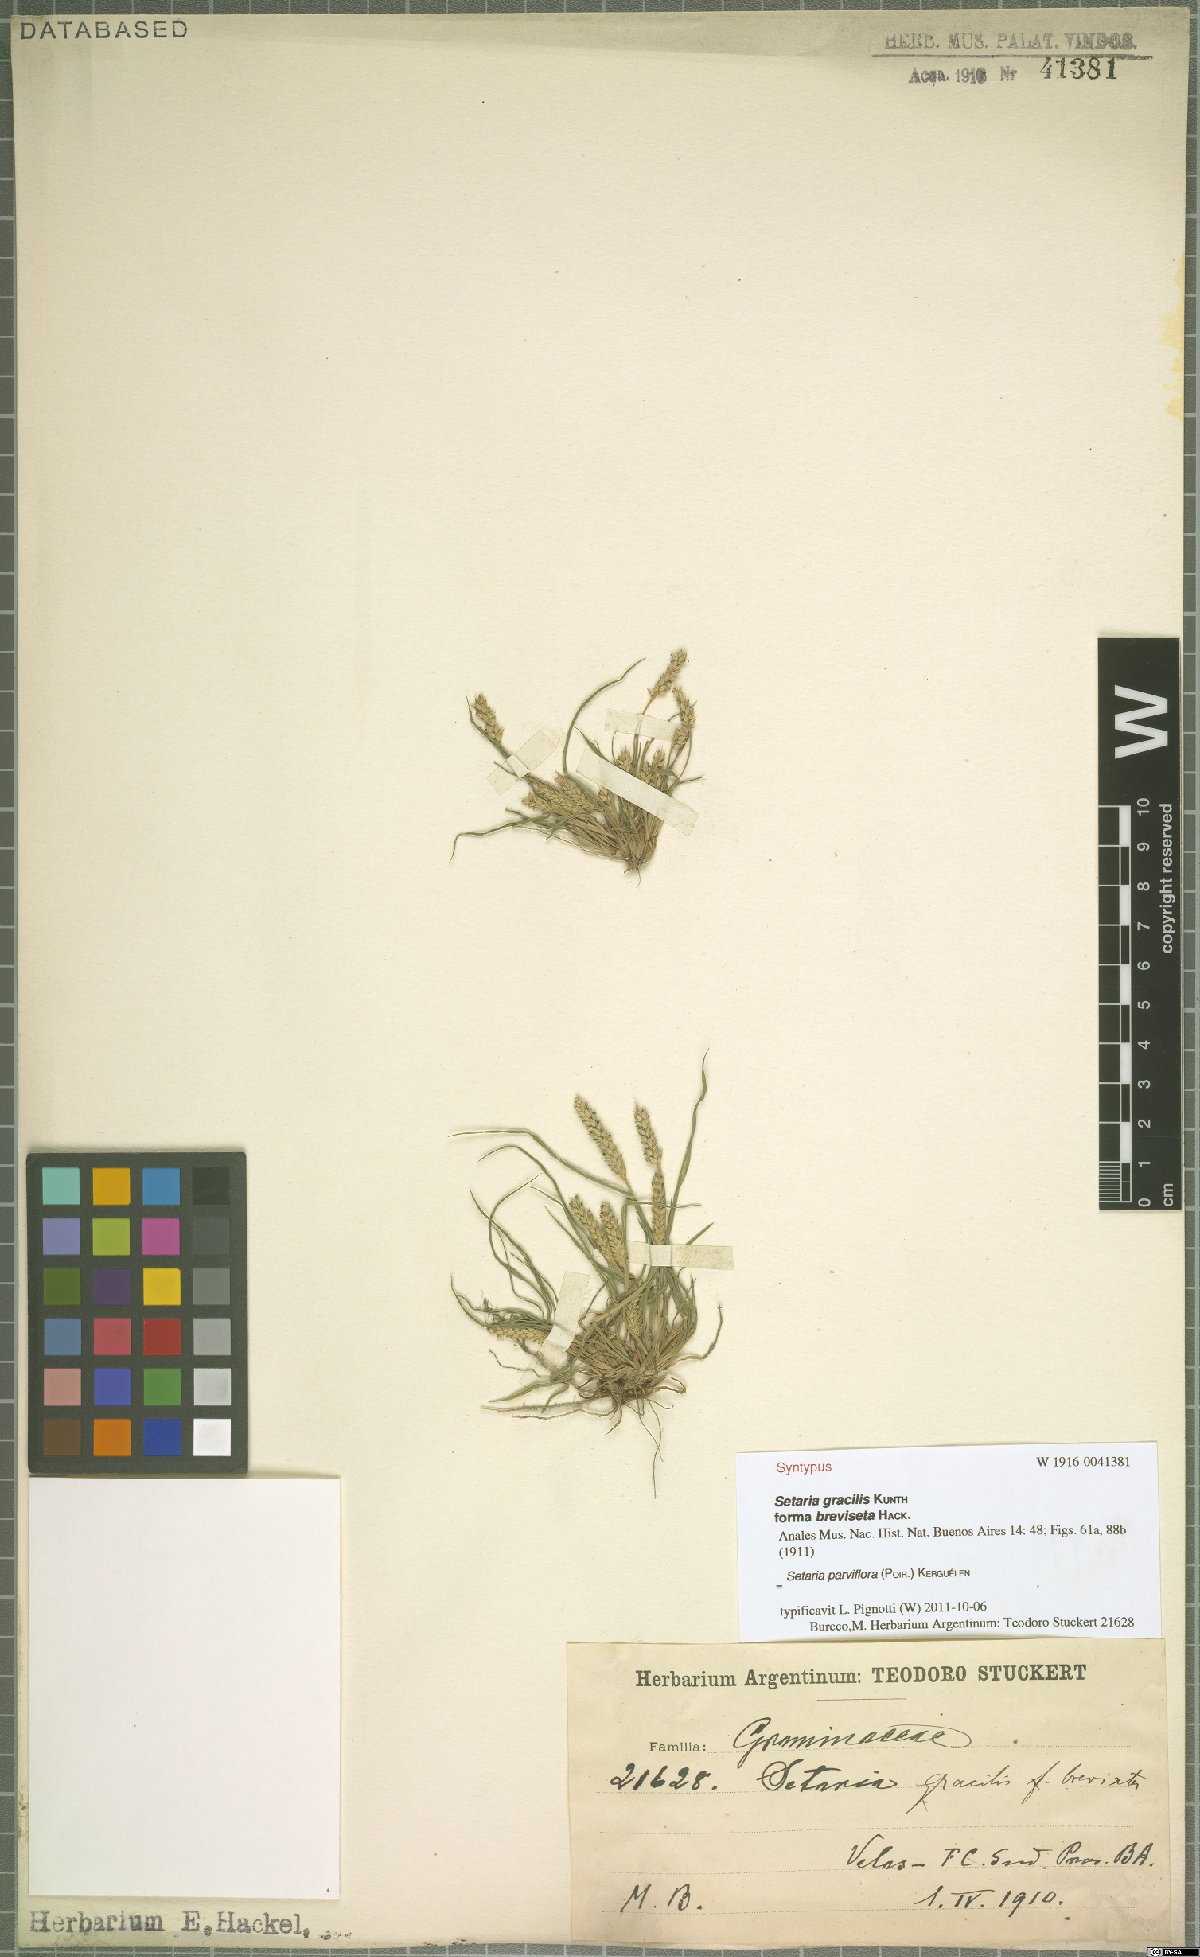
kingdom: Plantae
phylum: Tracheophyta
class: Liliopsida
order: Poales
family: Poaceae
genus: Setaria
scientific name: Setaria parviflora
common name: Knotroot bristle-grass
